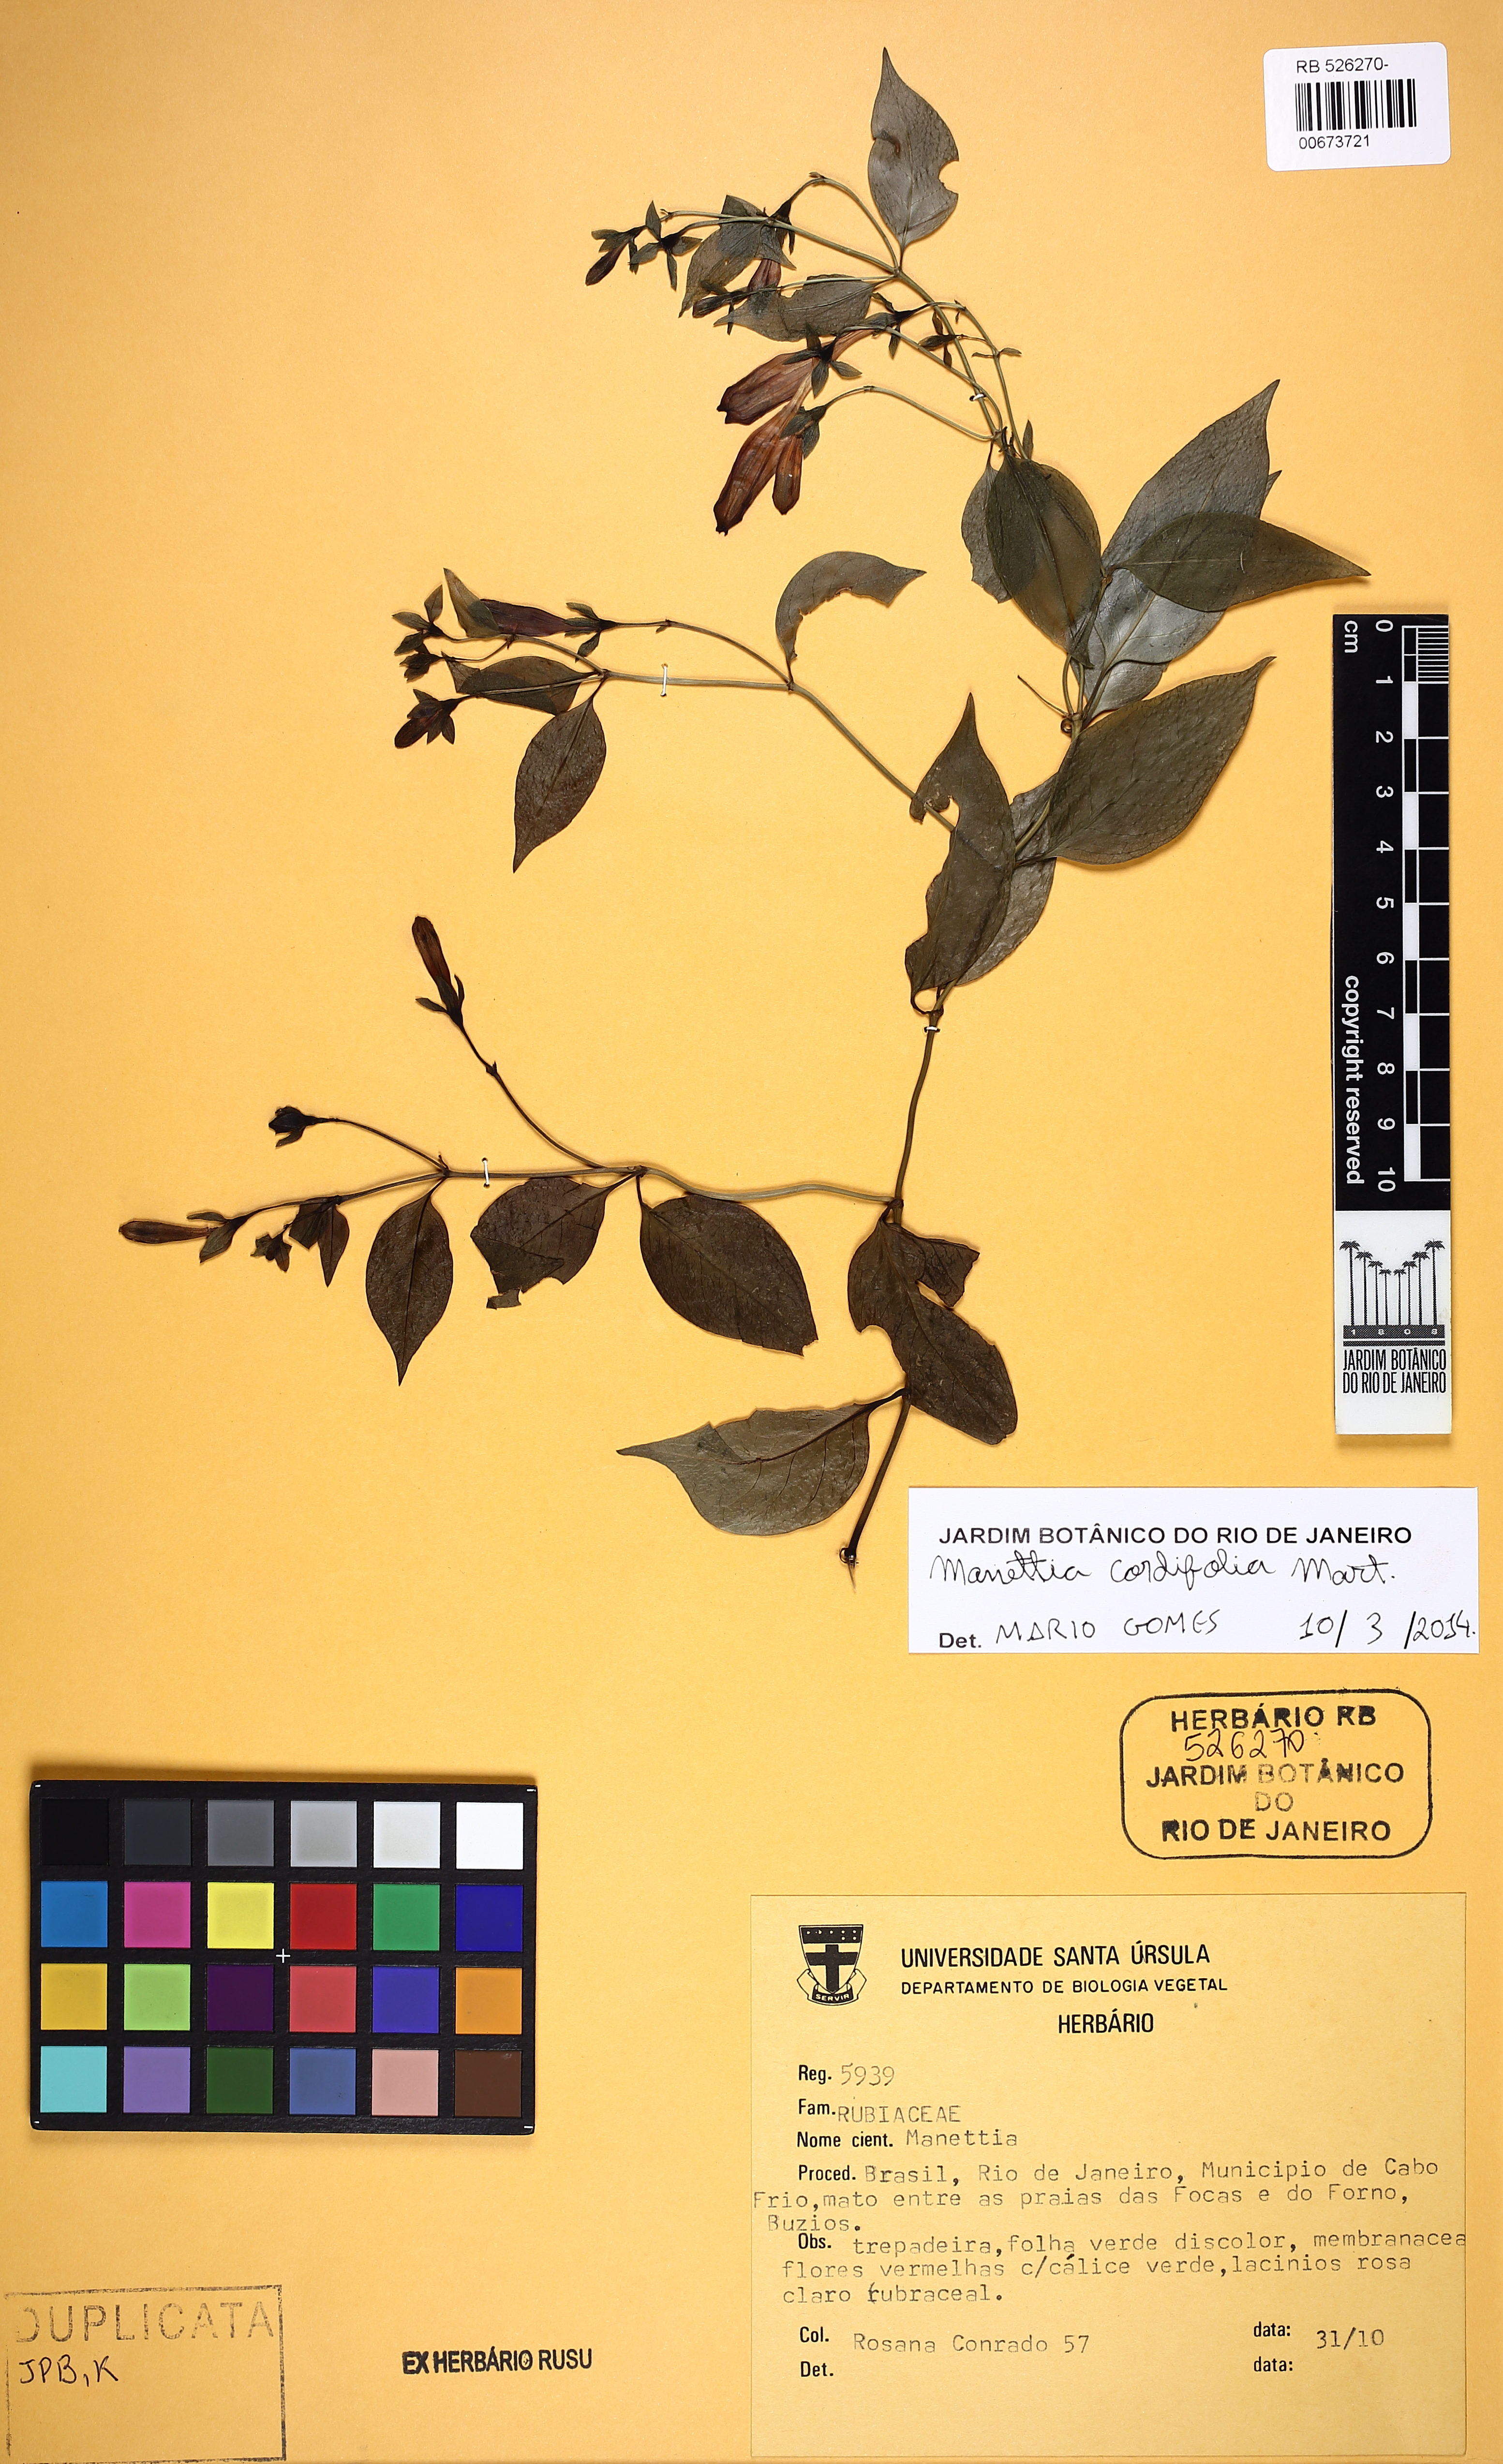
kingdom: Plantae
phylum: Tracheophyta
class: Magnoliopsida
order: Gentianales
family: Rubiaceae
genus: Manettia
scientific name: Manettia cordifolia
